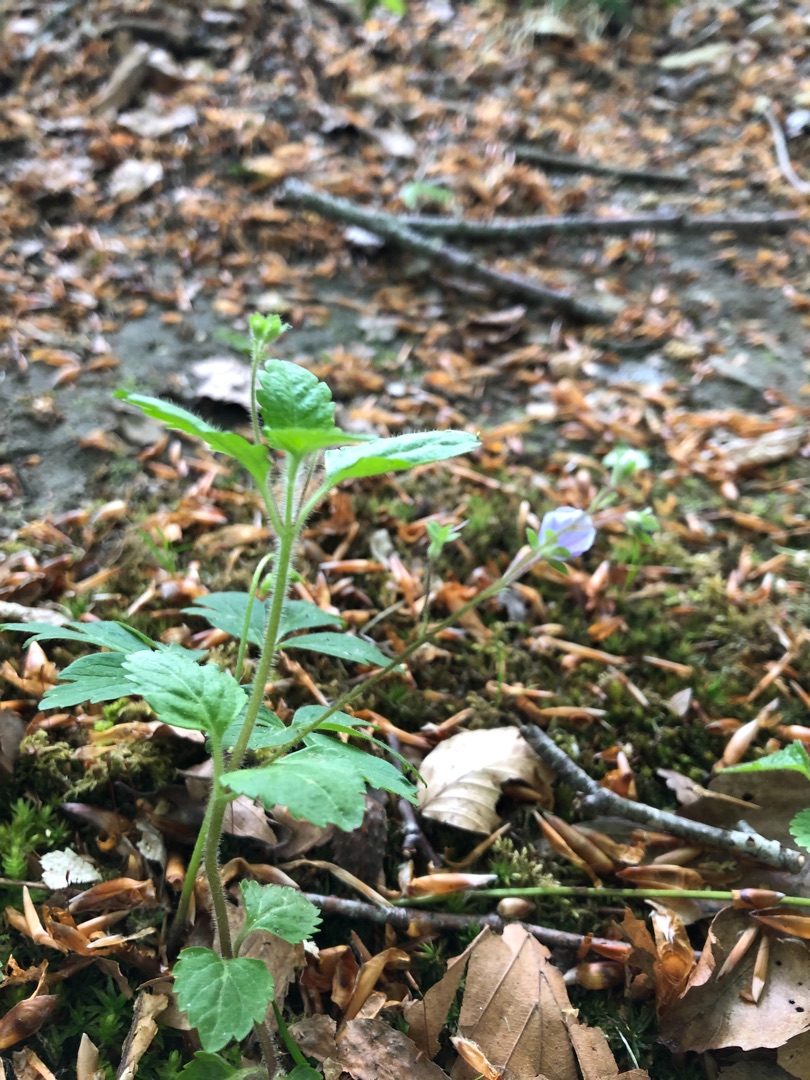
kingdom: Plantae
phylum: Tracheophyta
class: Magnoliopsida
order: Lamiales
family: Plantaginaceae
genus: Veronica
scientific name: Veronica montana
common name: Bjerg-ærenpris
